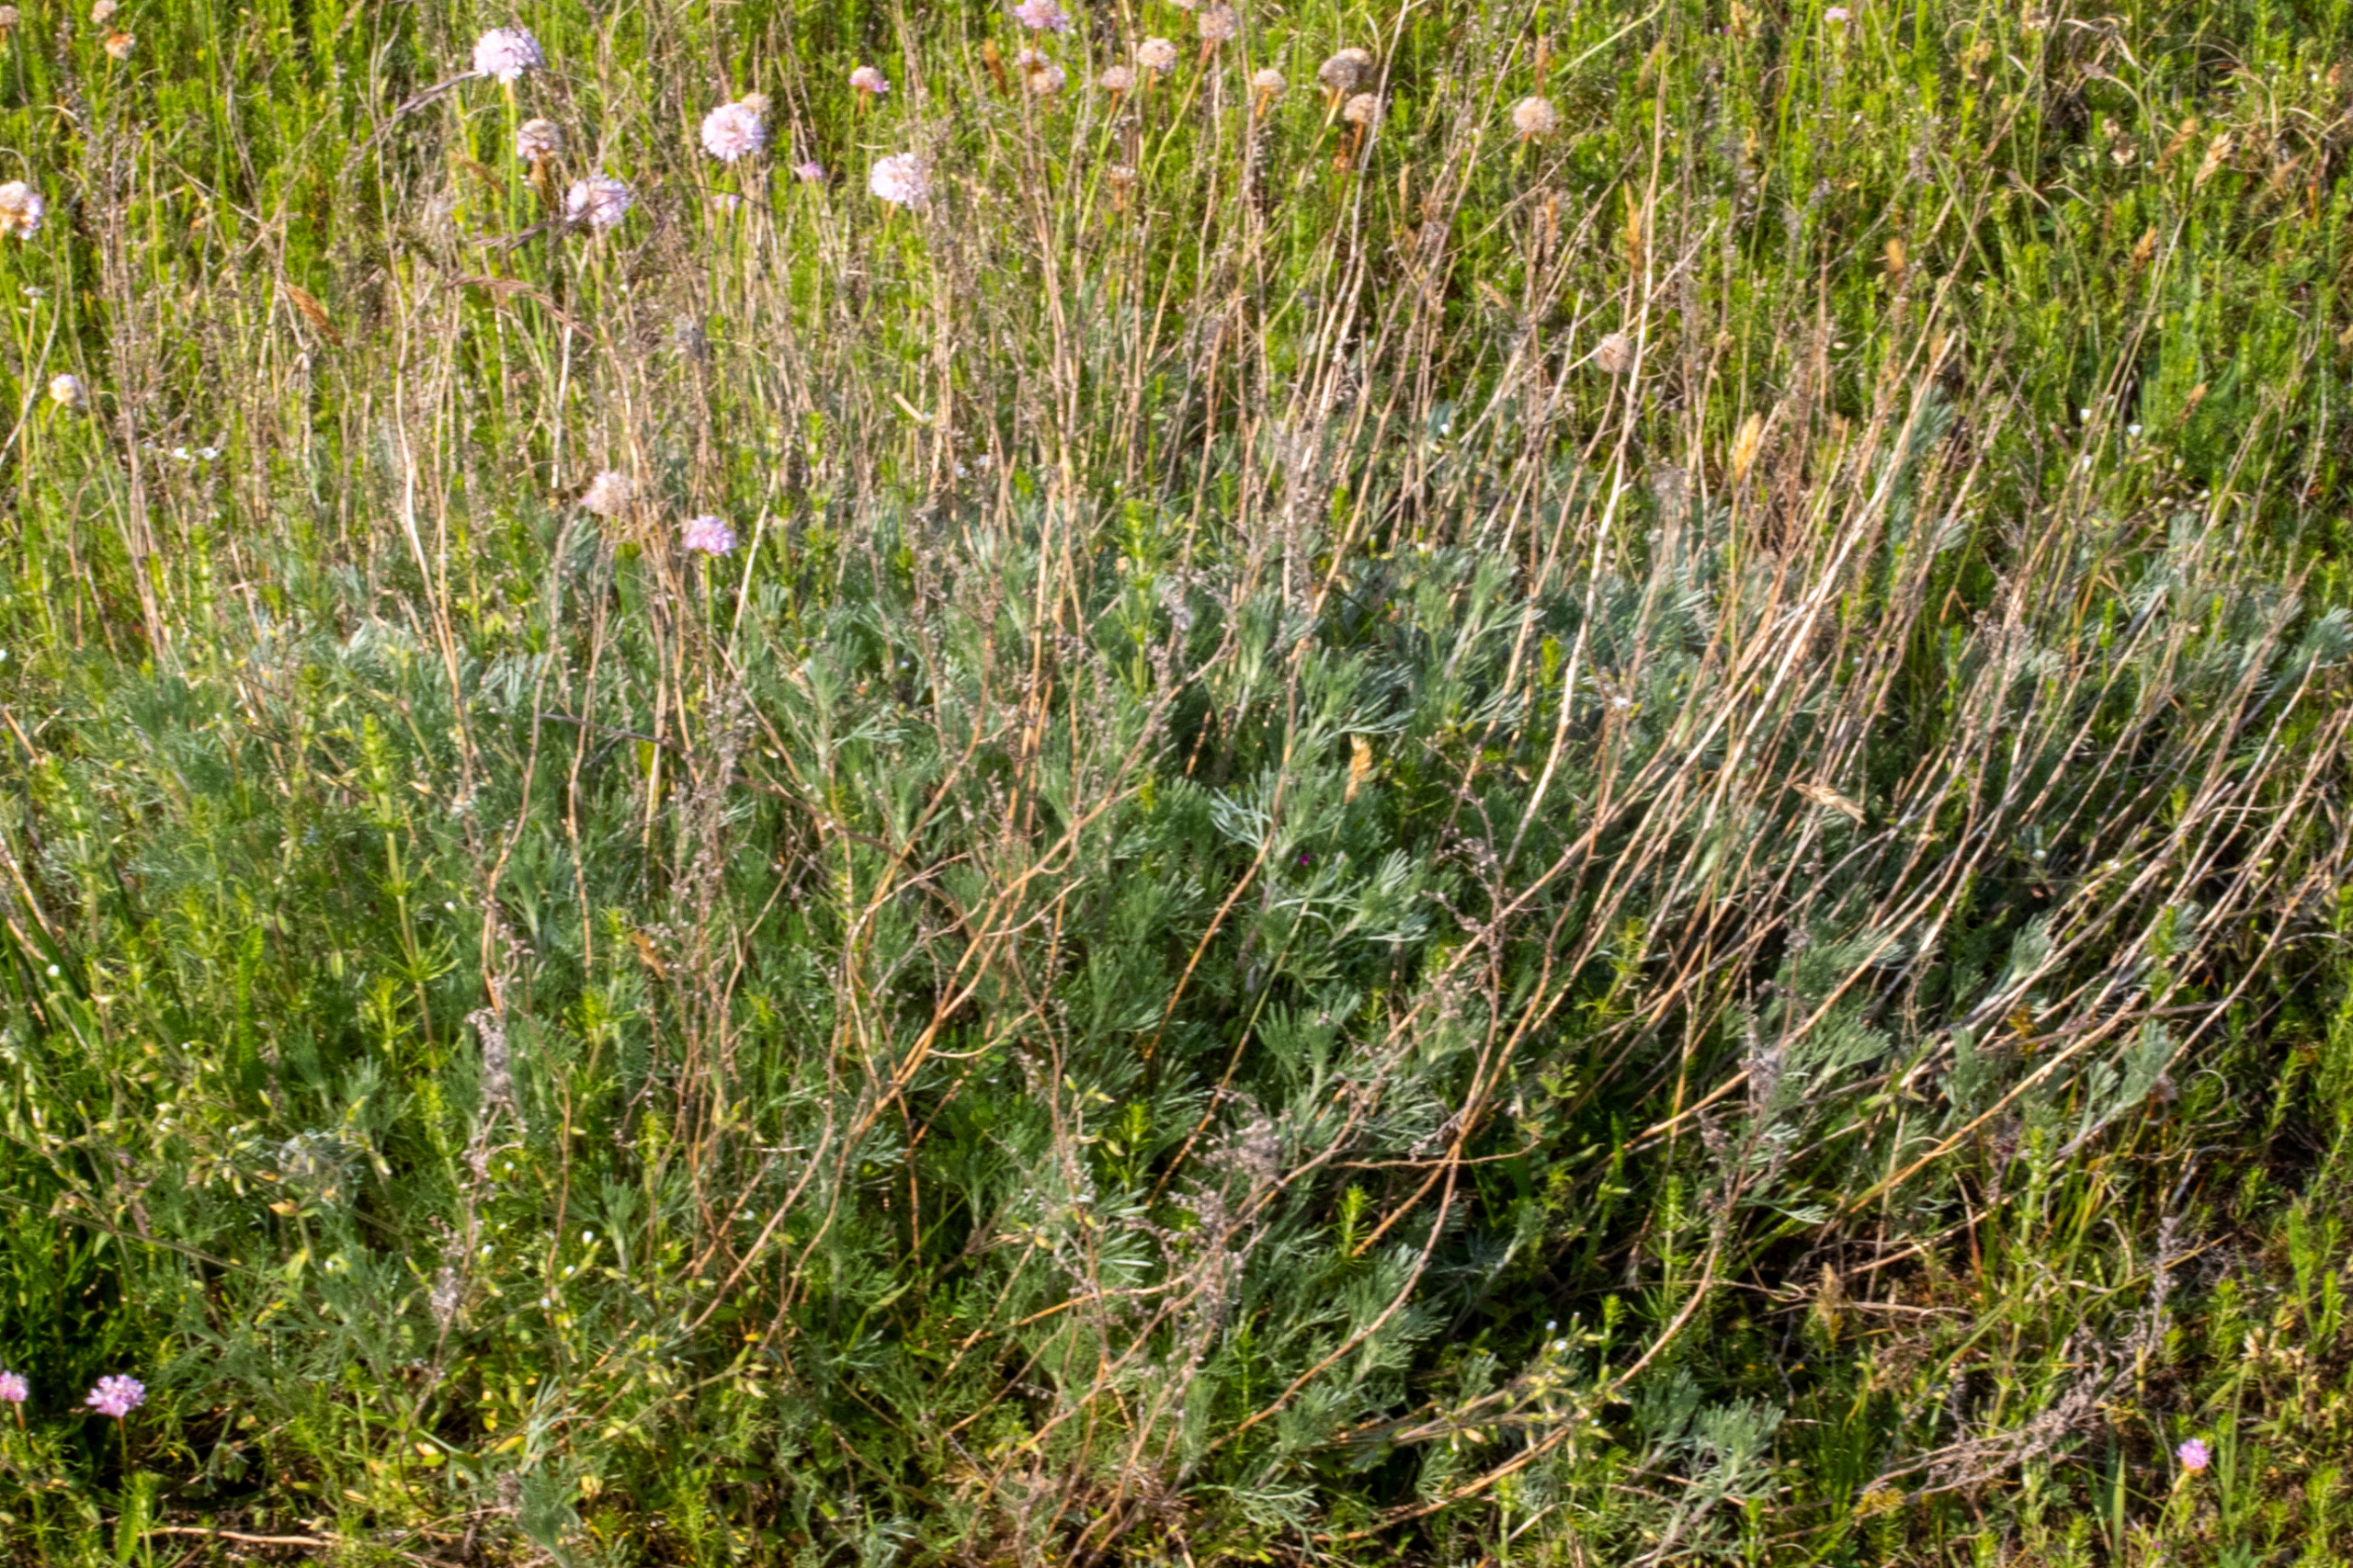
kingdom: Plantae
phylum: Tracheophyta
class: Magnoliopsida
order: Asterales
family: Asteraceae
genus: Artemisia
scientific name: Artemisia maritima
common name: Strandmalurt
